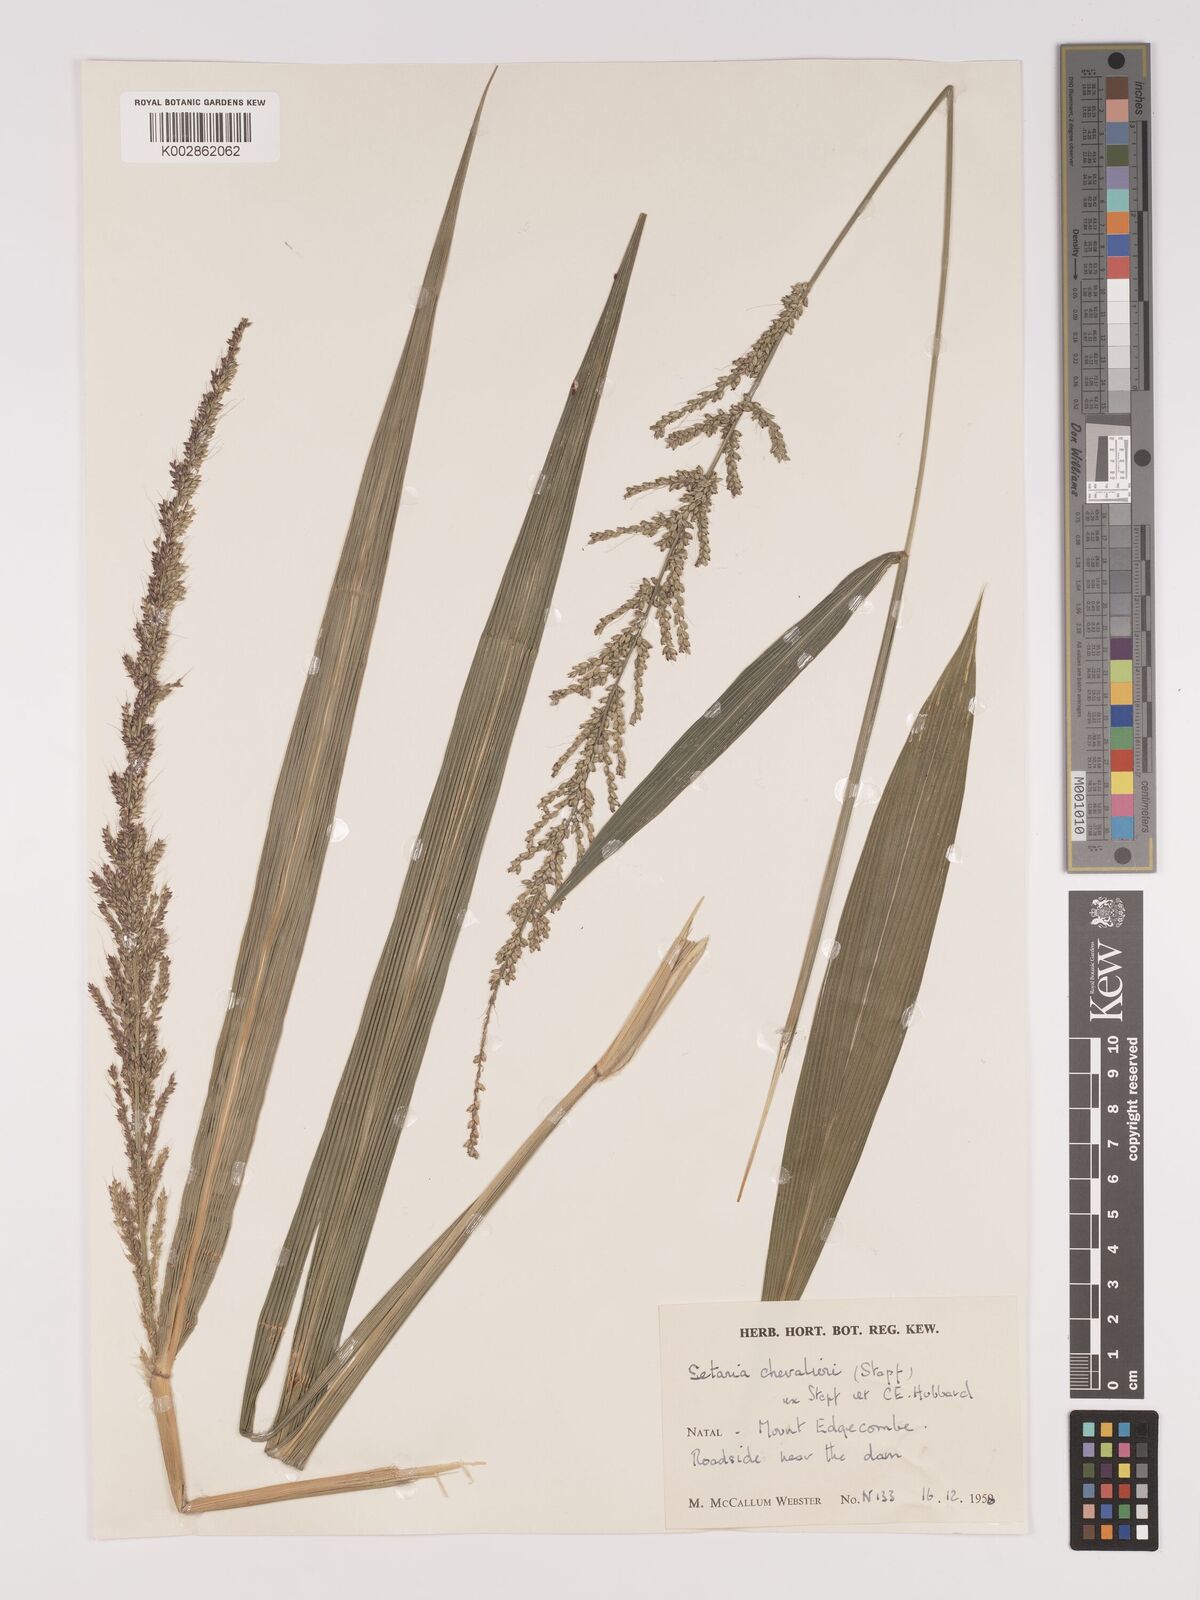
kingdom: Plantae
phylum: Tracheophyta
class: Liliopsida
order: Poales
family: Poaceae
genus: Setaria
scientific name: Setaria megaphylla
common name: Bigleaf bristlegrass
